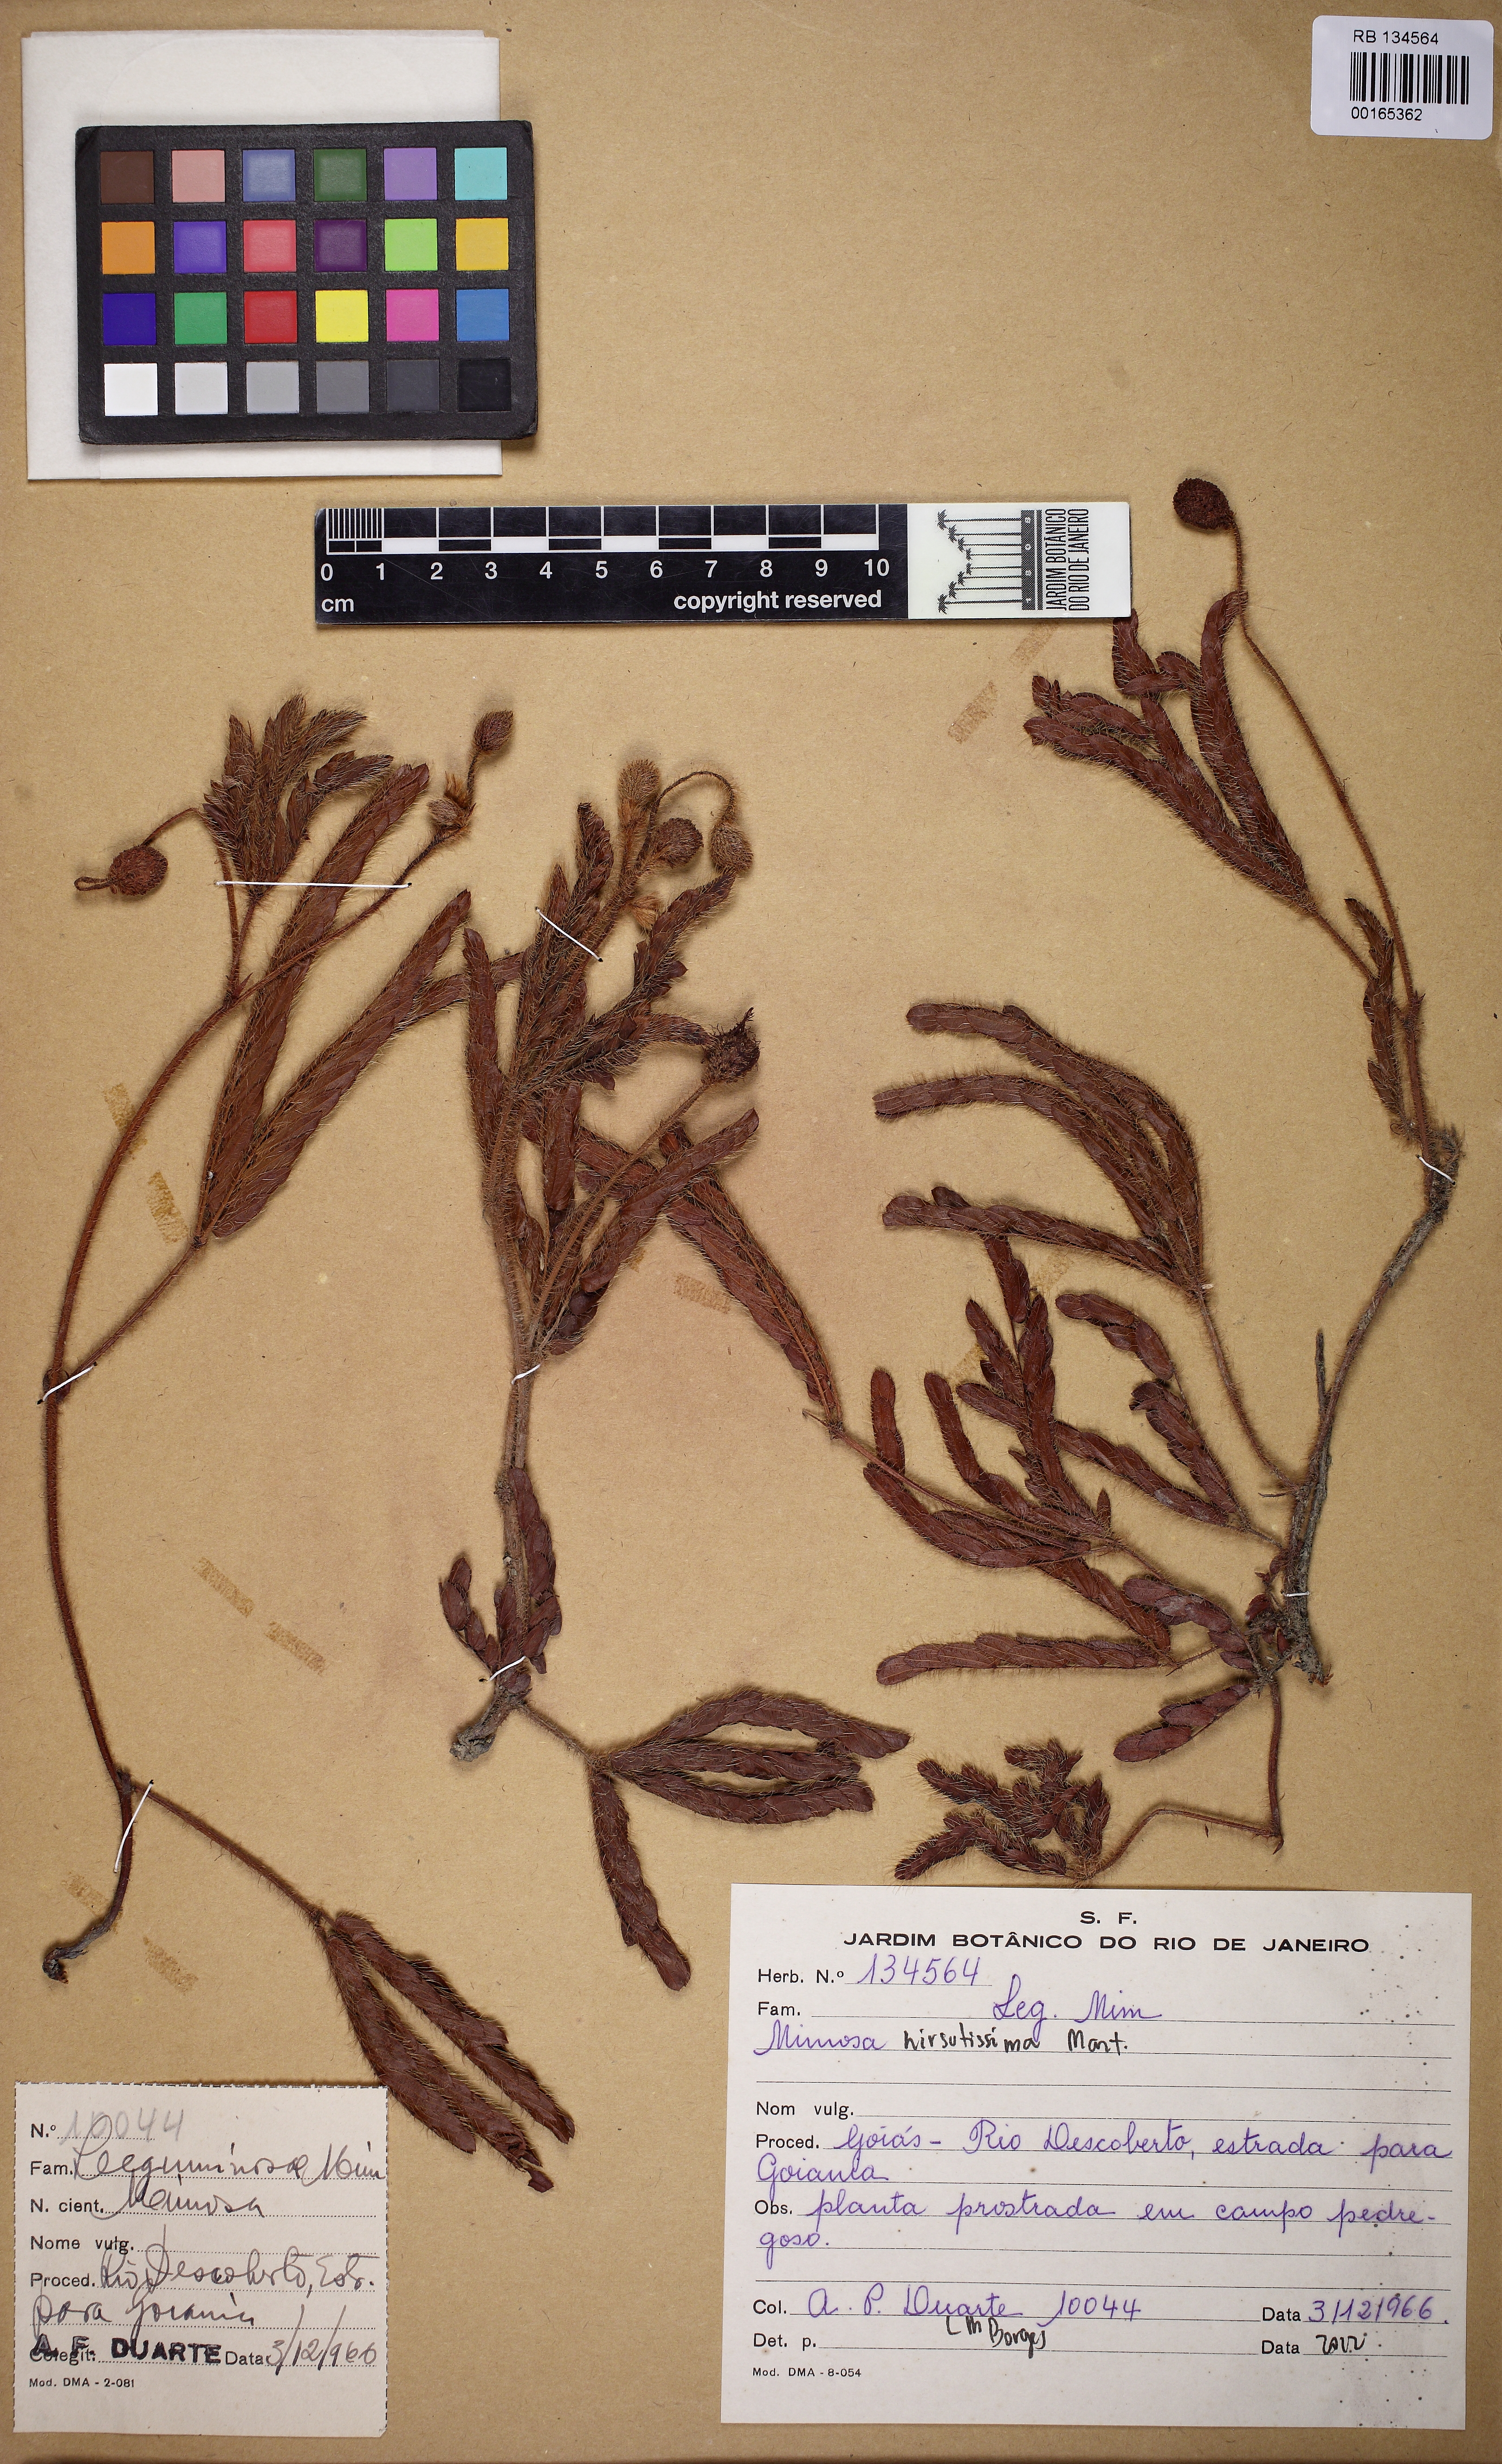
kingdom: Plantae
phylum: Tracheophyta
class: Magnoliopsida
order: Fabales
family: Fabaceae
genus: Mimosa
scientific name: Mimosa hirsutissima
